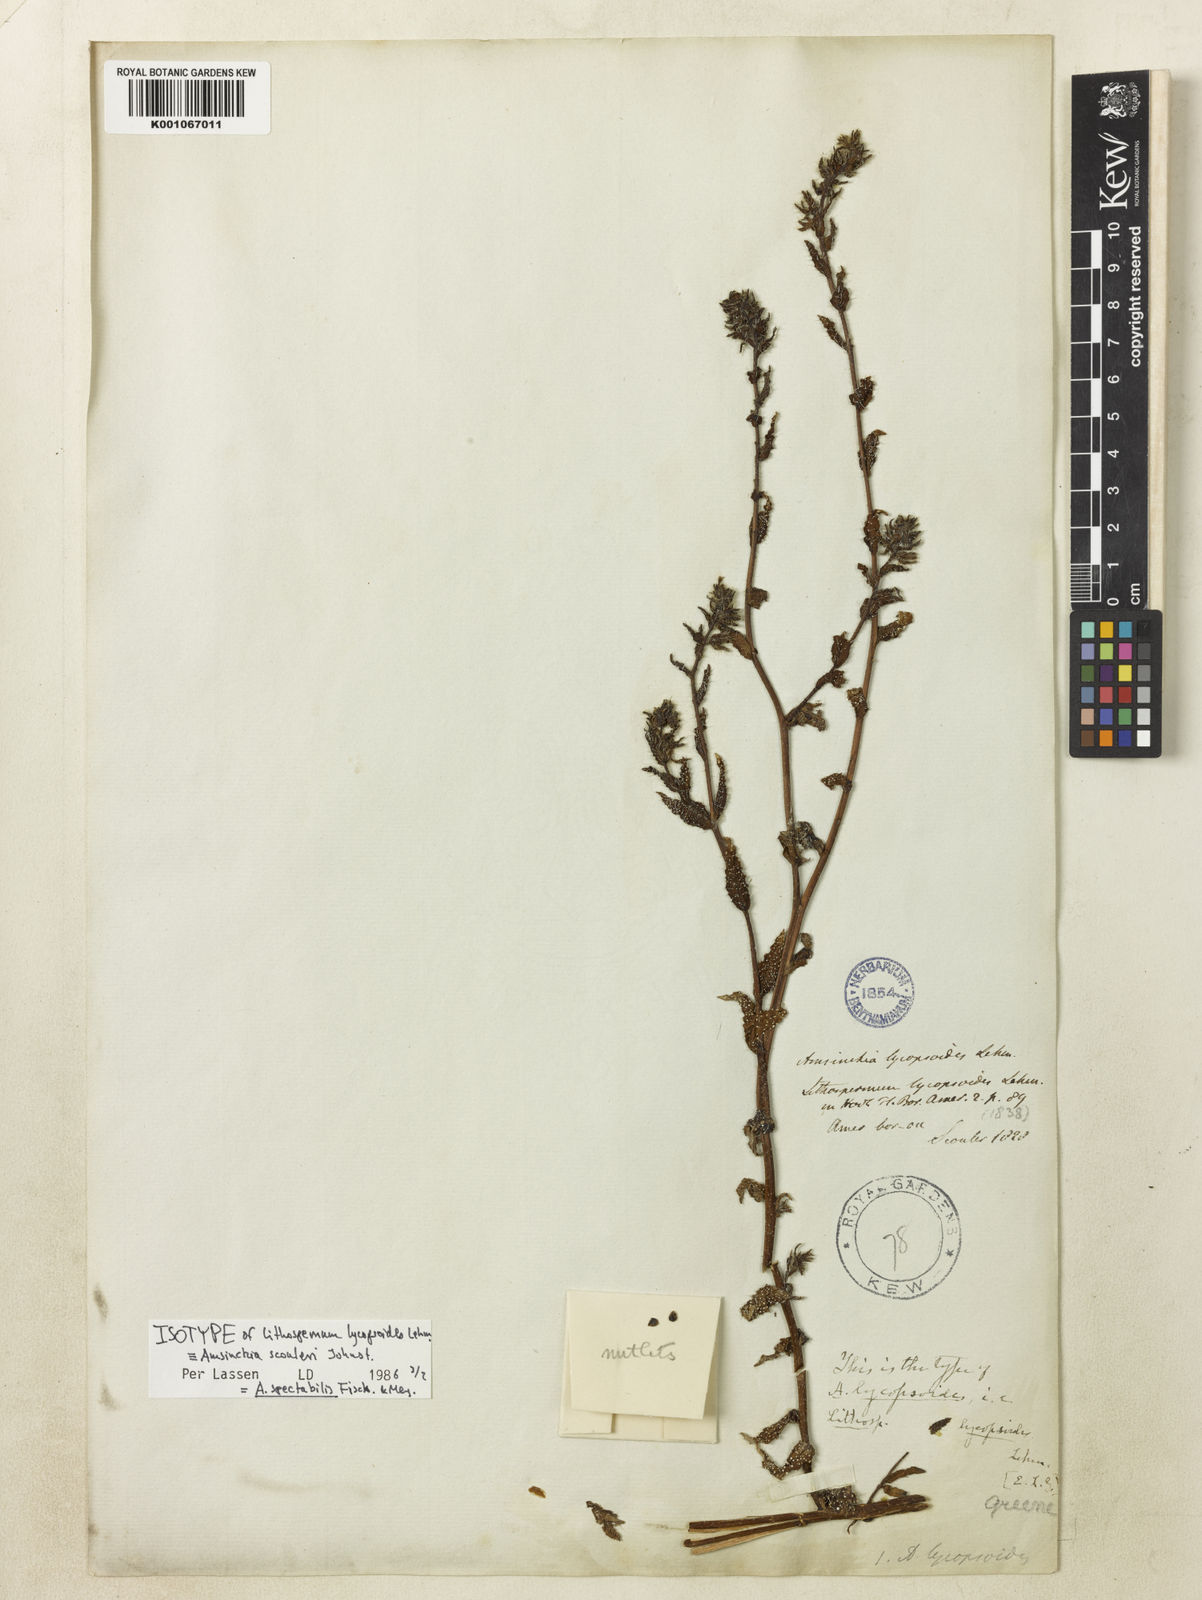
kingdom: Plantae
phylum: Tracheophyta
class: Magnoliopsida
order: Boraginales
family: Boraginaceae
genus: Amsinckia
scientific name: Amsinckia spectabilis
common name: Seaside fiddleneck
